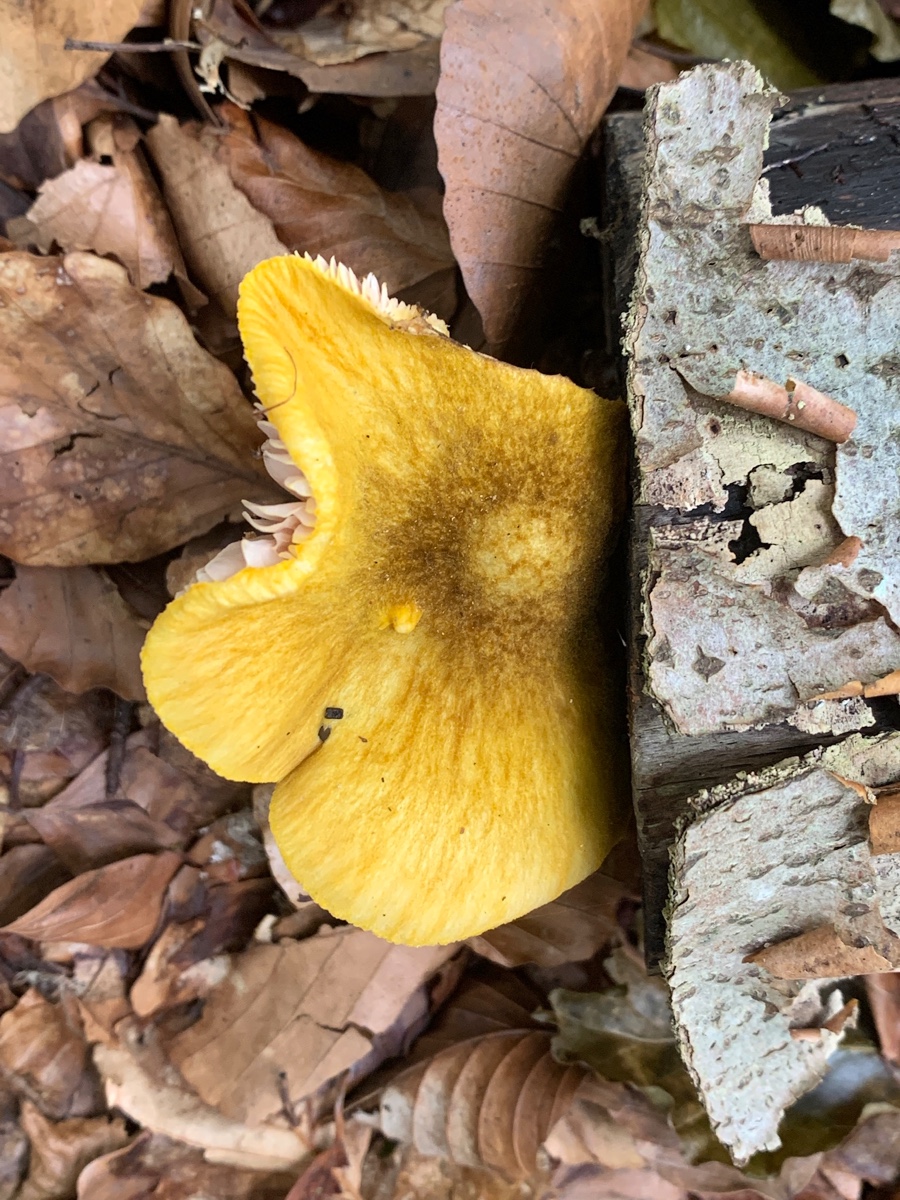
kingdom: Fungi
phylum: Basidiomycota
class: Agaricomycetes
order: Agaricales
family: Pluteaceae
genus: Pluteus
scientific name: Pluteus leoninus
